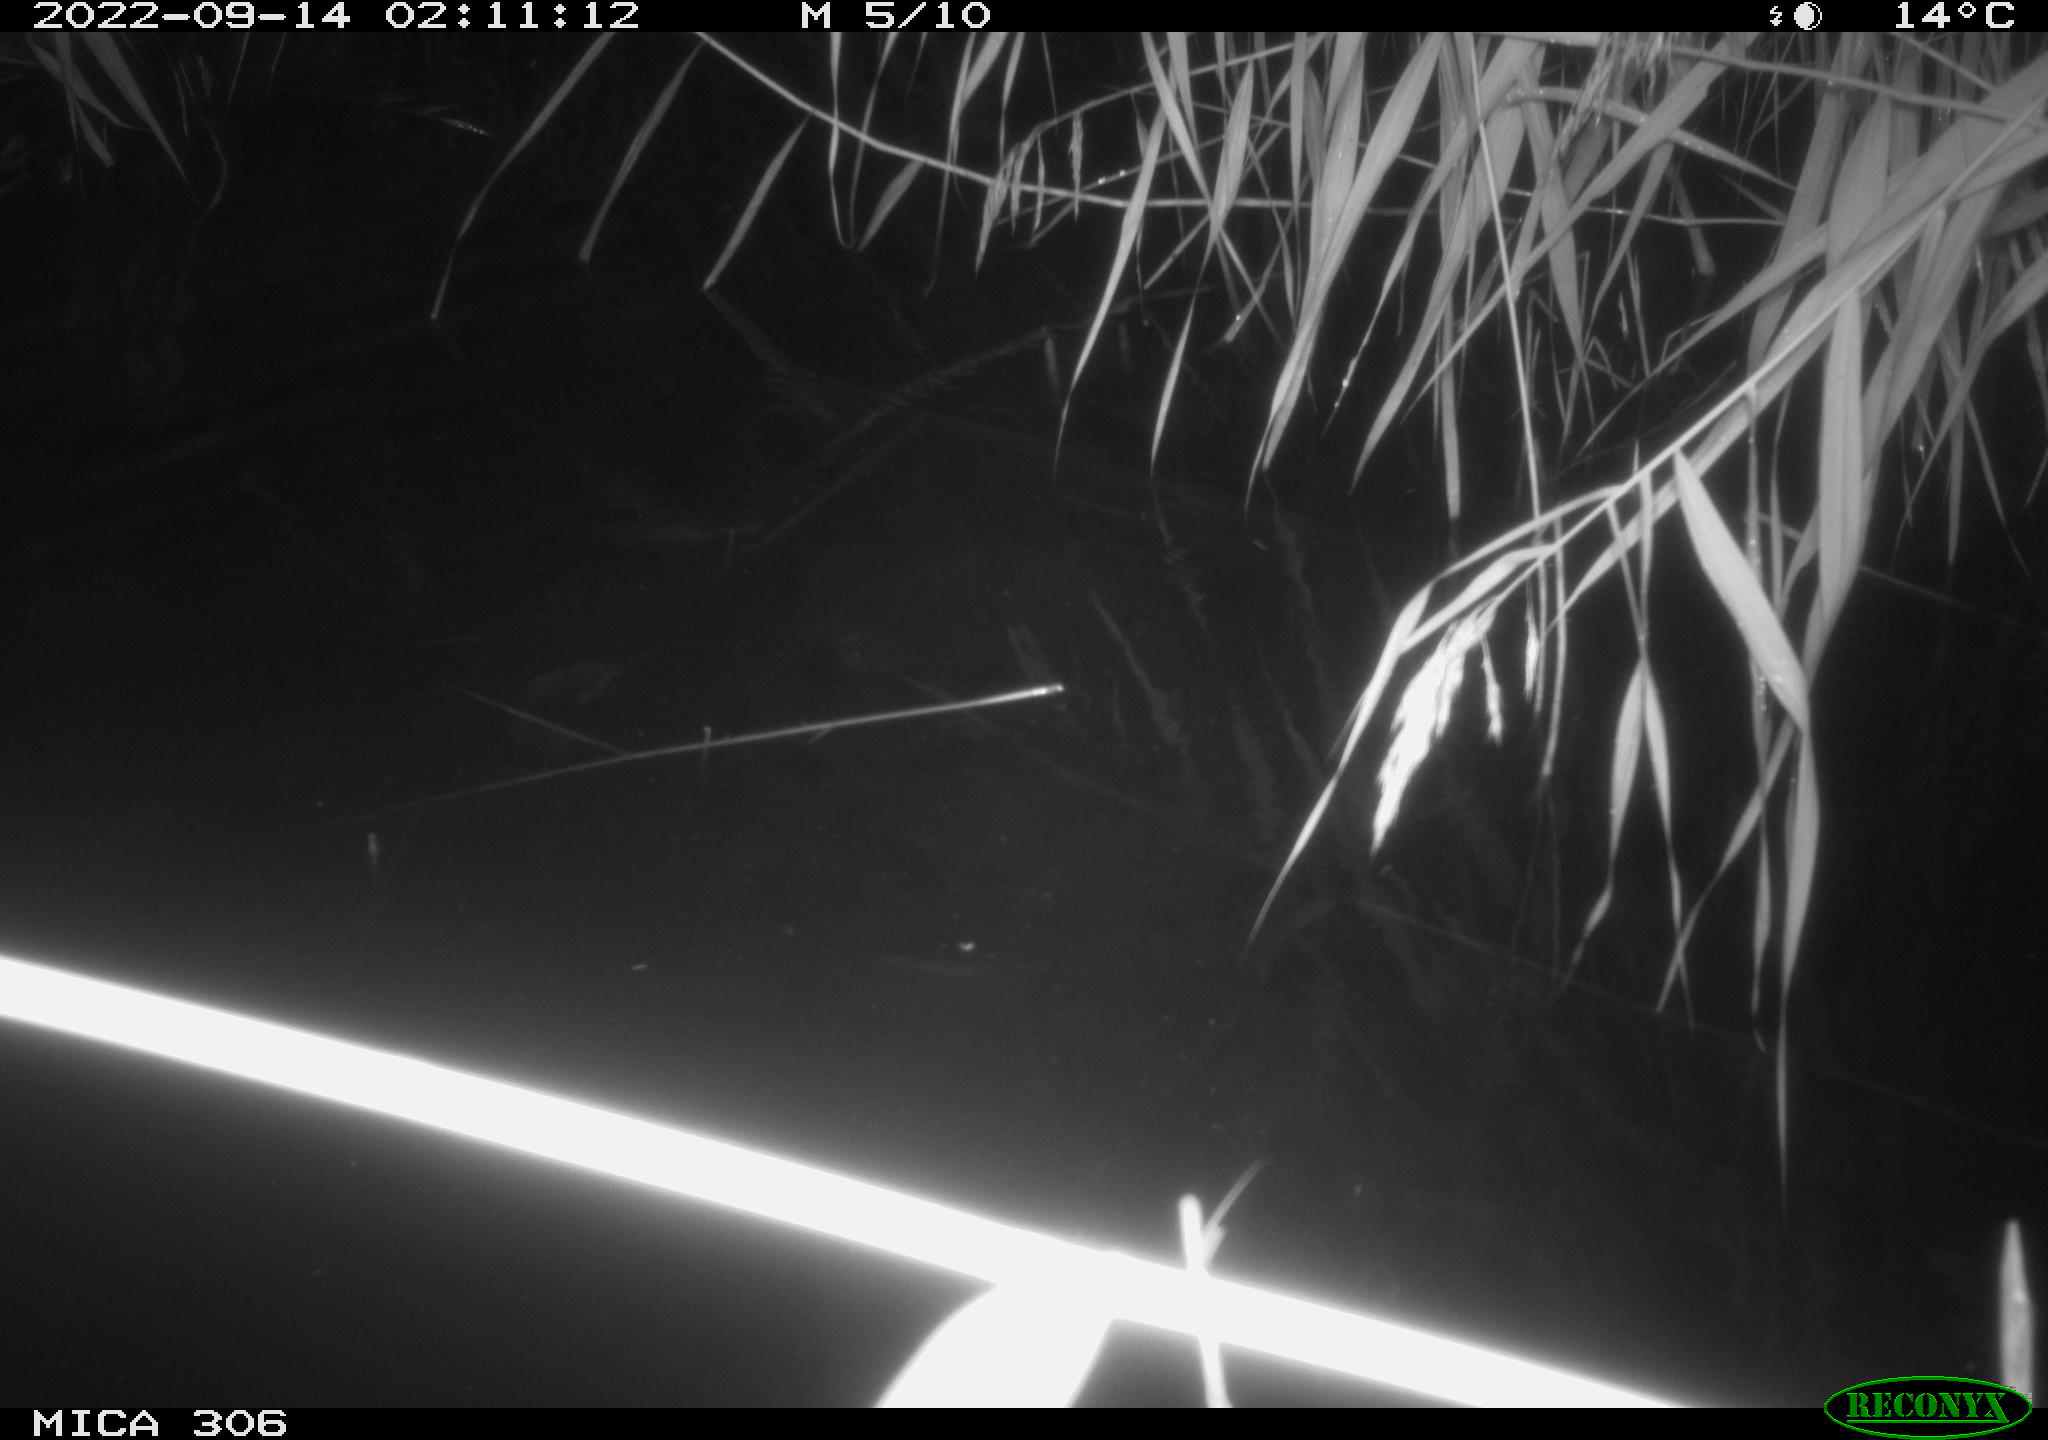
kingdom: Animalia
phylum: Chordata
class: Mammalia
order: Rodentia
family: Muridae
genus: Rattus
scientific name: Rattus norvegicus
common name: Brown rat
